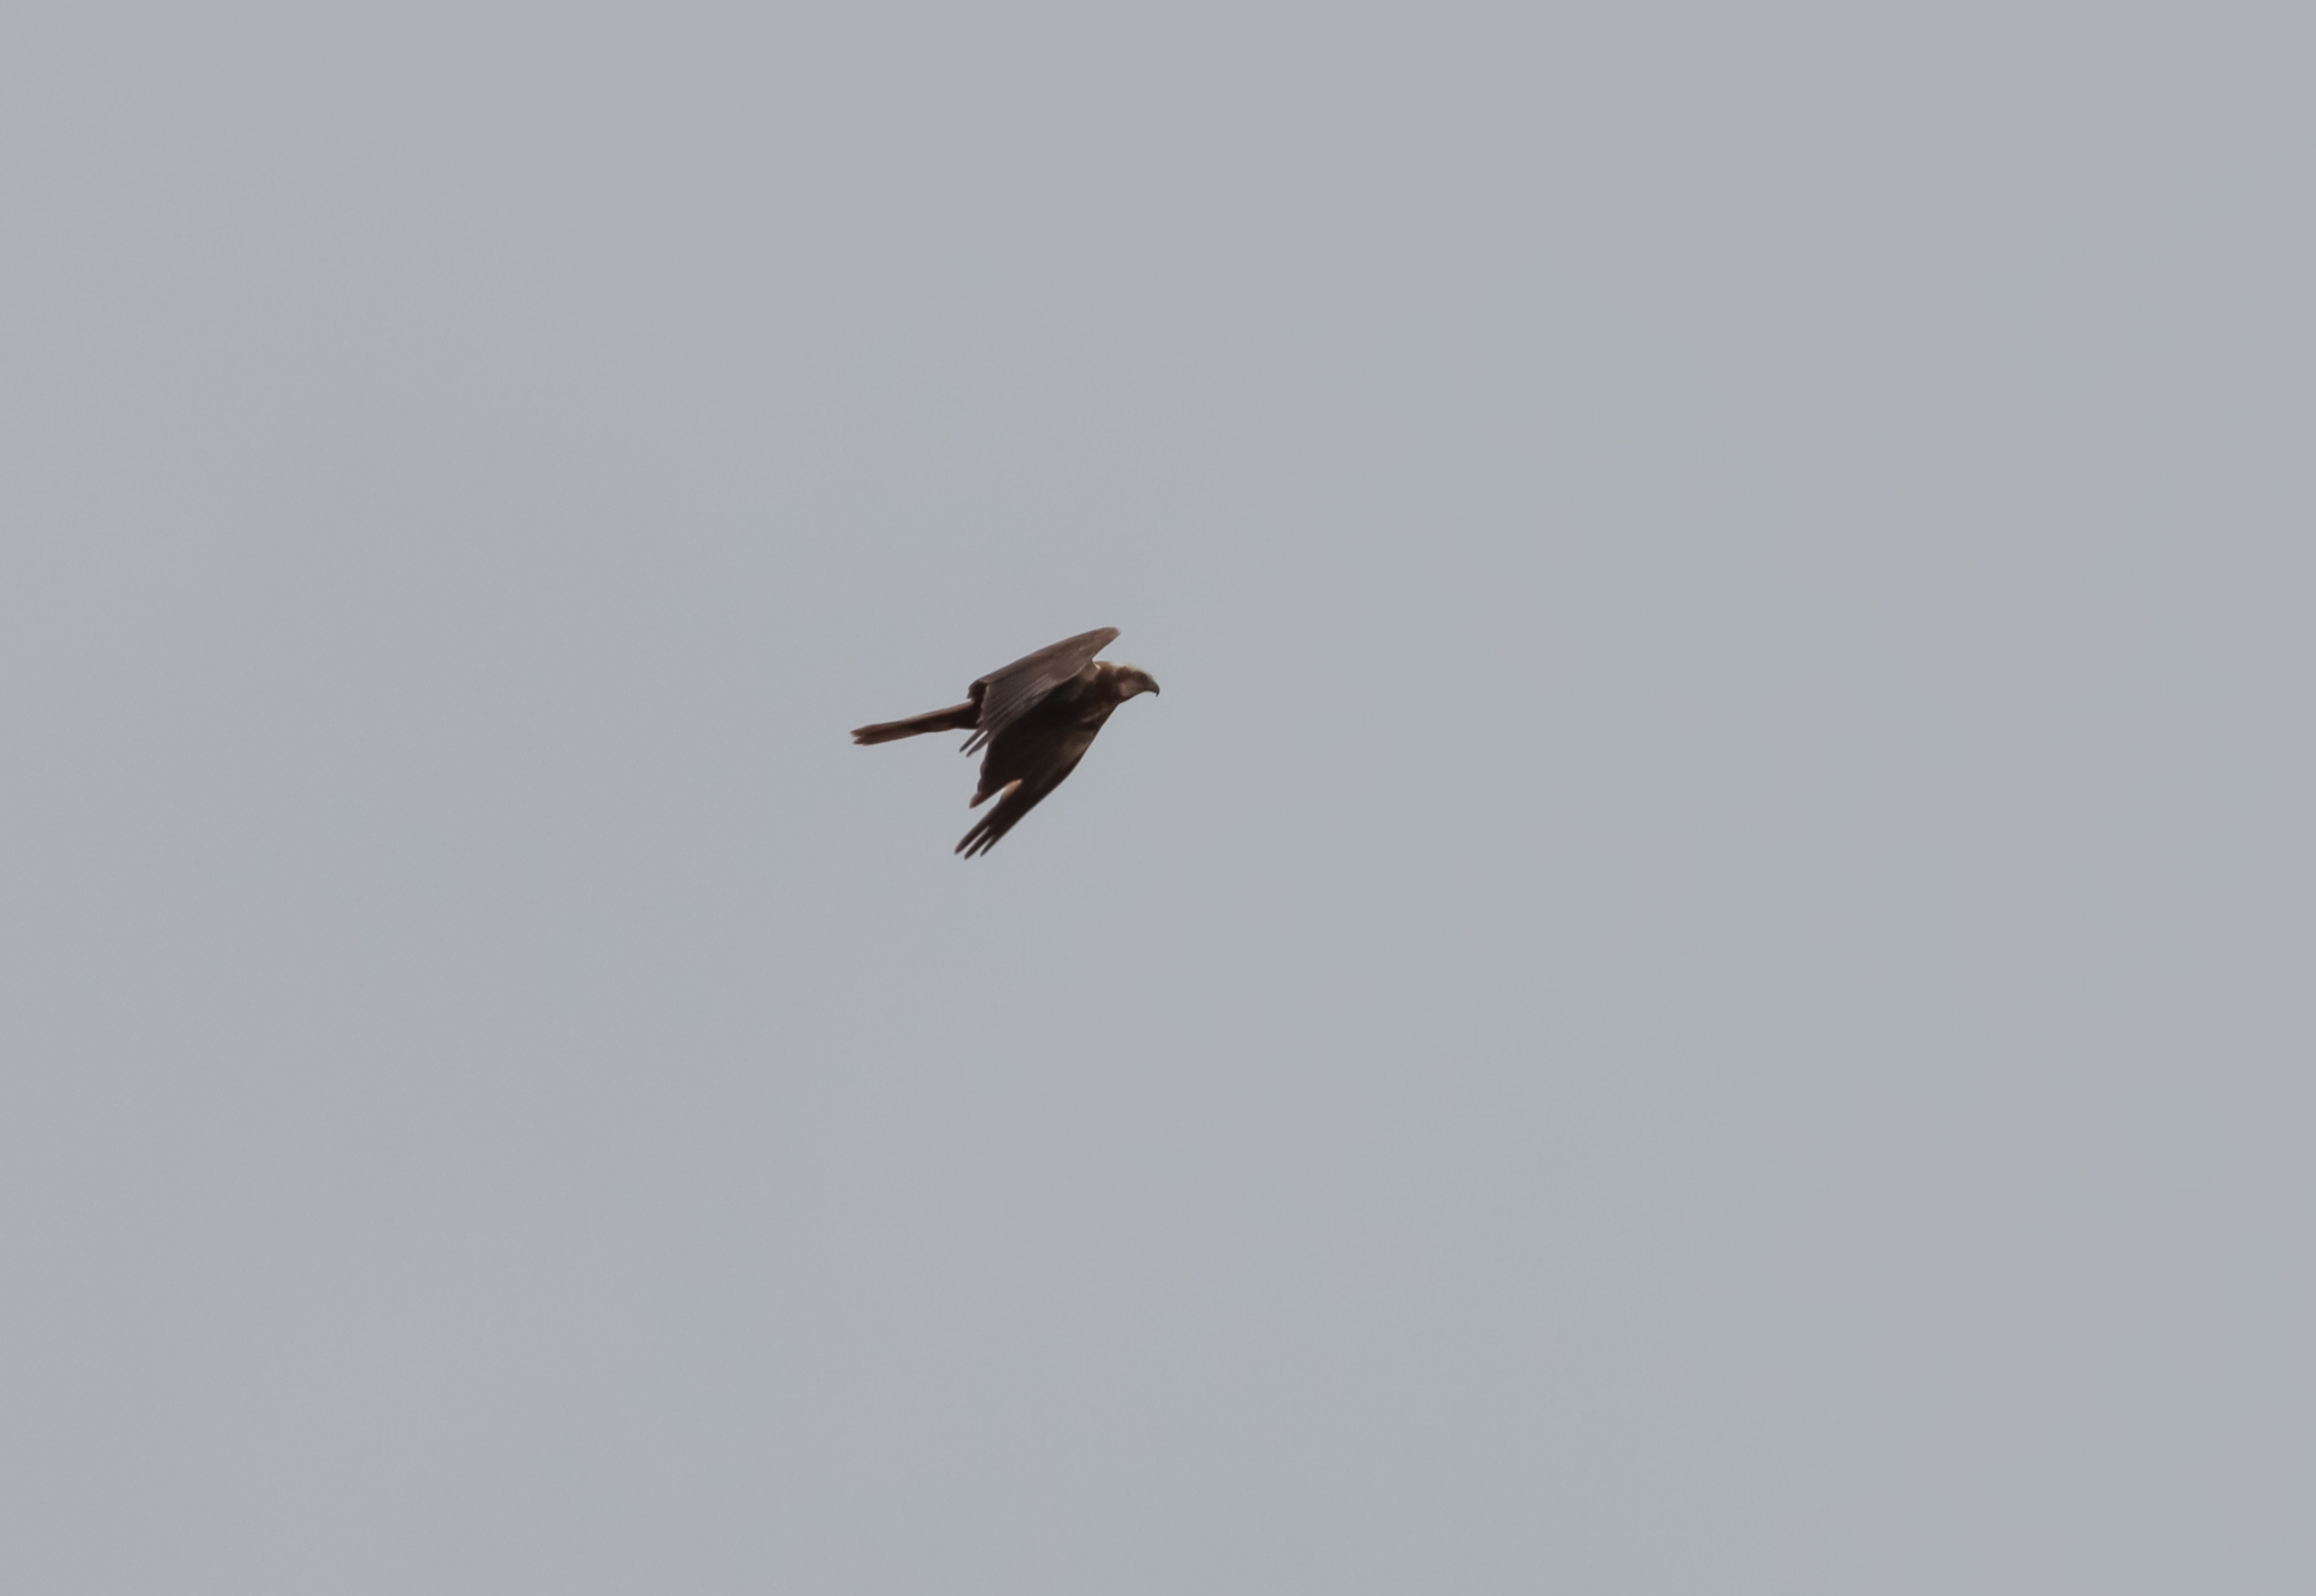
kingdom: Animalia
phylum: Chordata
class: Aves
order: Accipitriformes
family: Accipitridae
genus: Circus
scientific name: Circus aeruginosus
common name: Rørhøg
